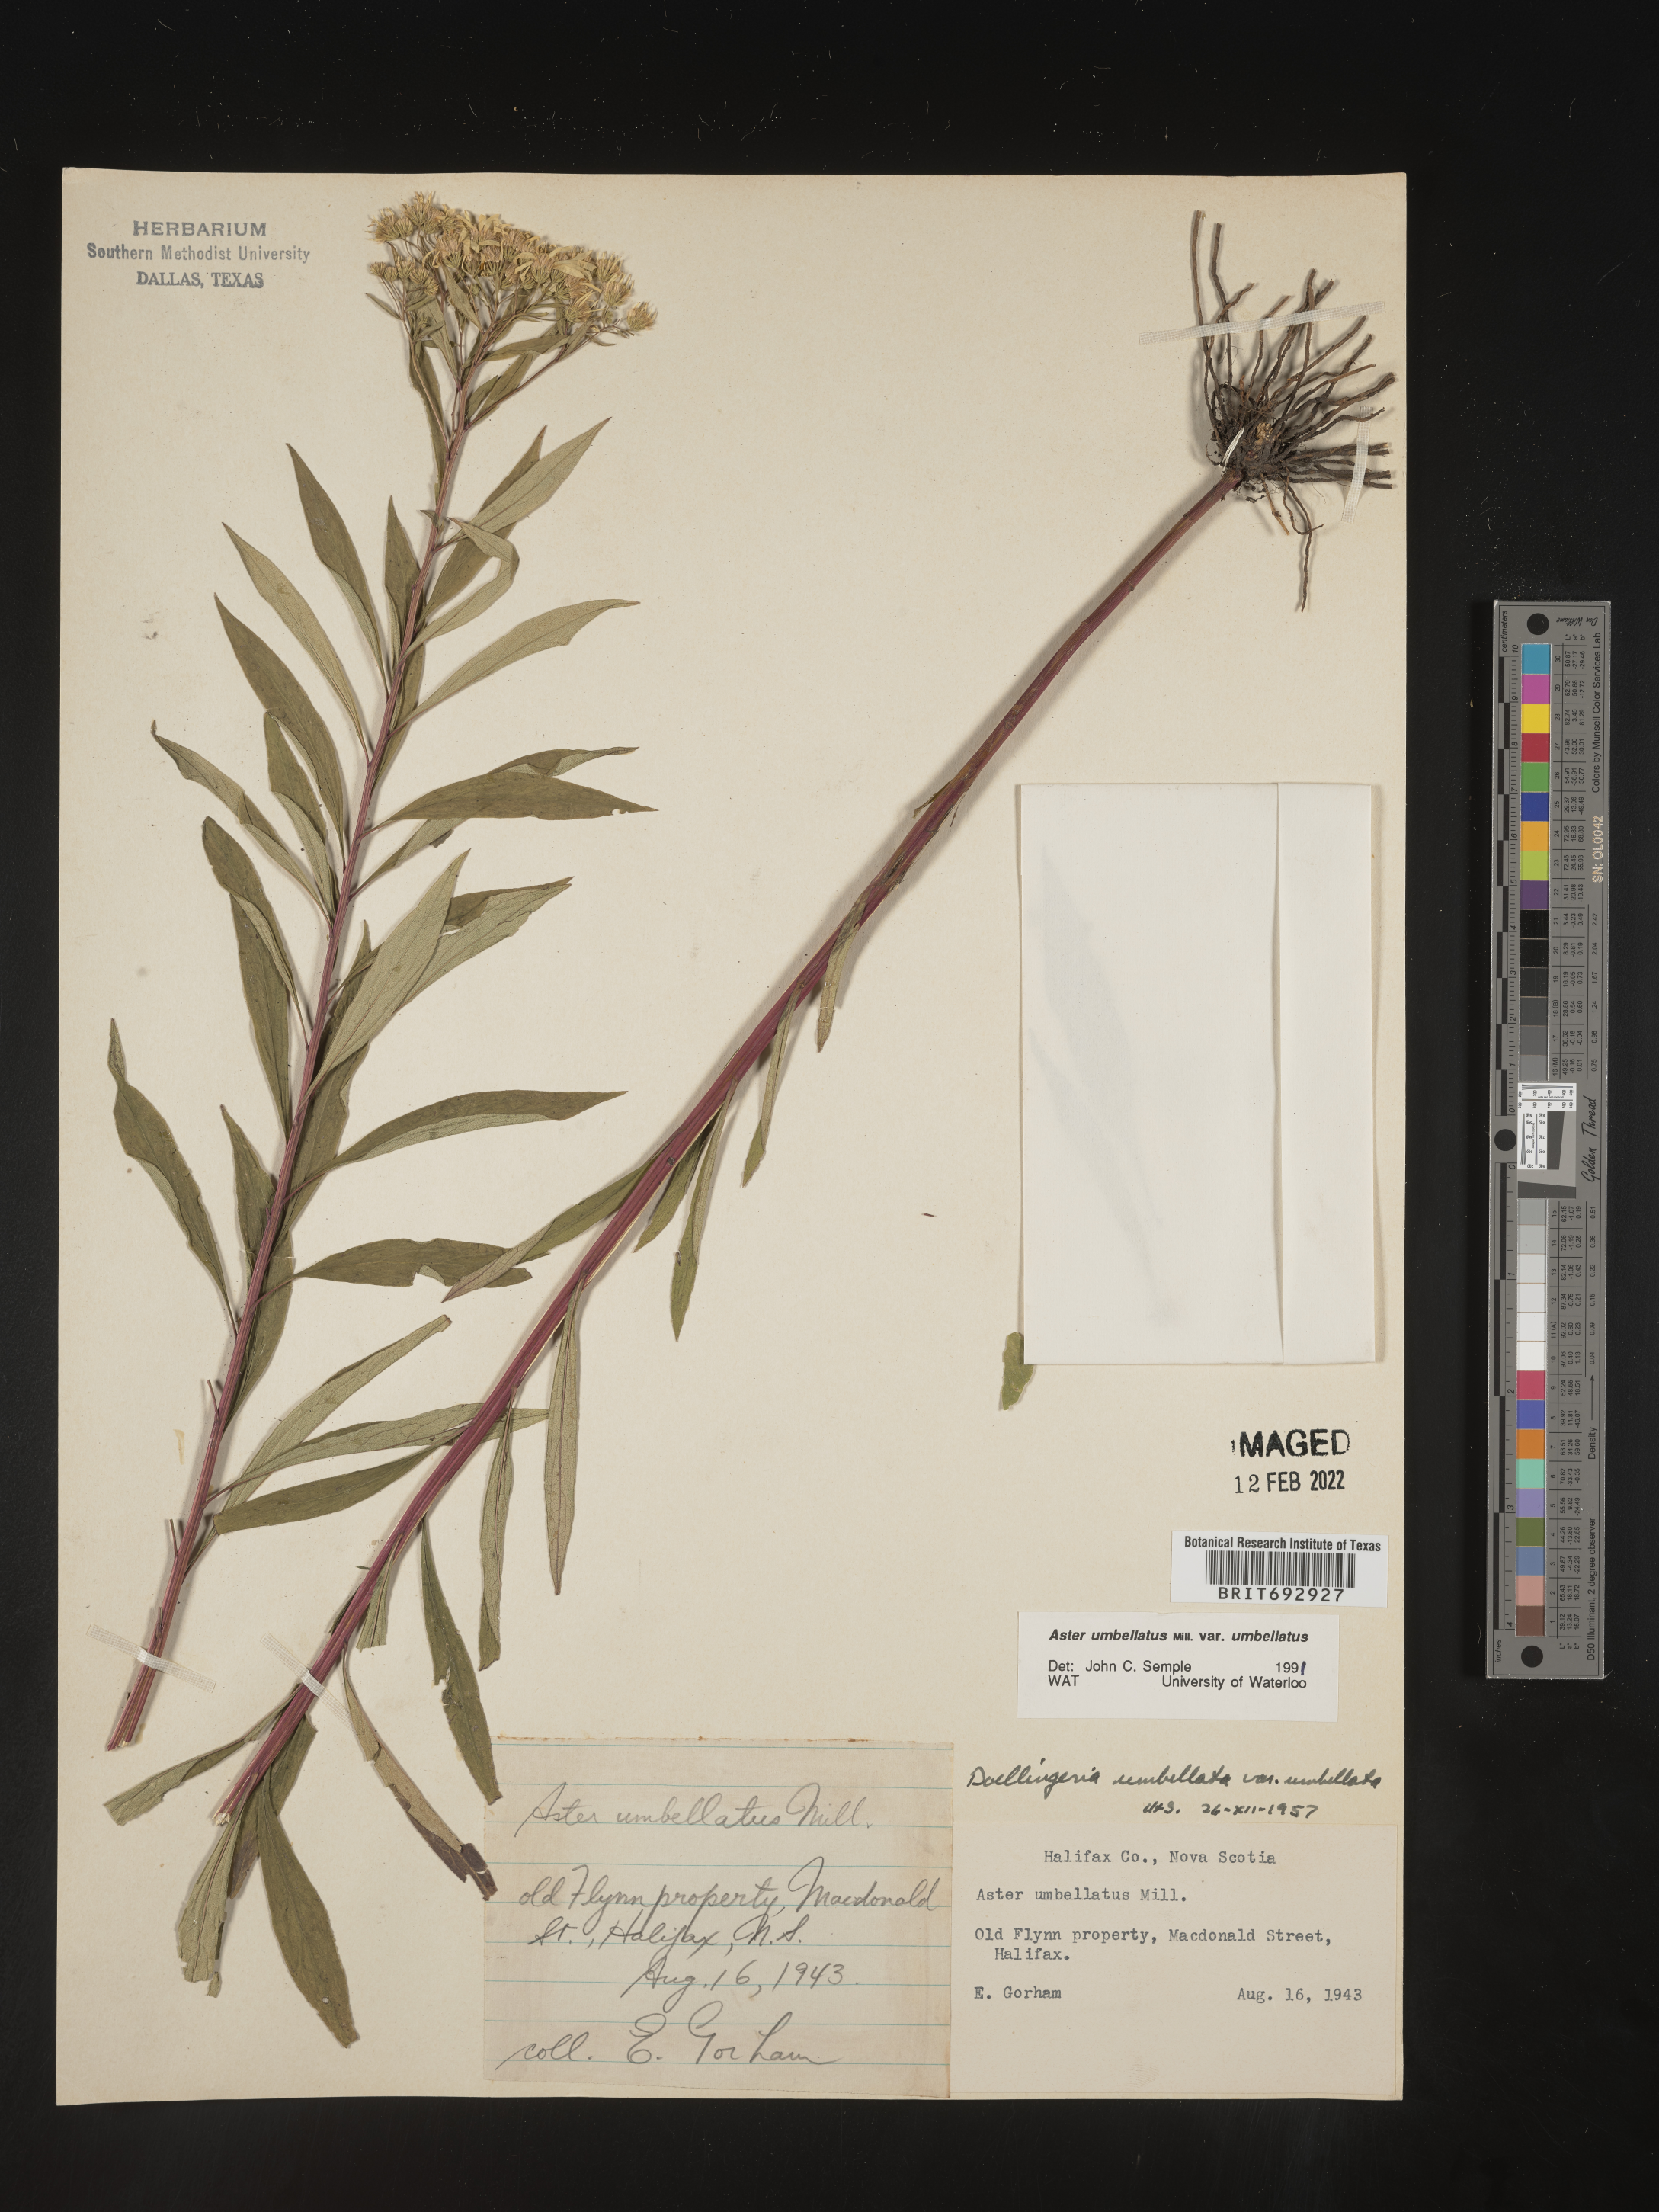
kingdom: Plantae
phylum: Tracheophyta
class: Magnoliopsida
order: Asterales
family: Asteraceae
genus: Doellingeria
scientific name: Doellingeria umbellata
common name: Flat-top white aster
